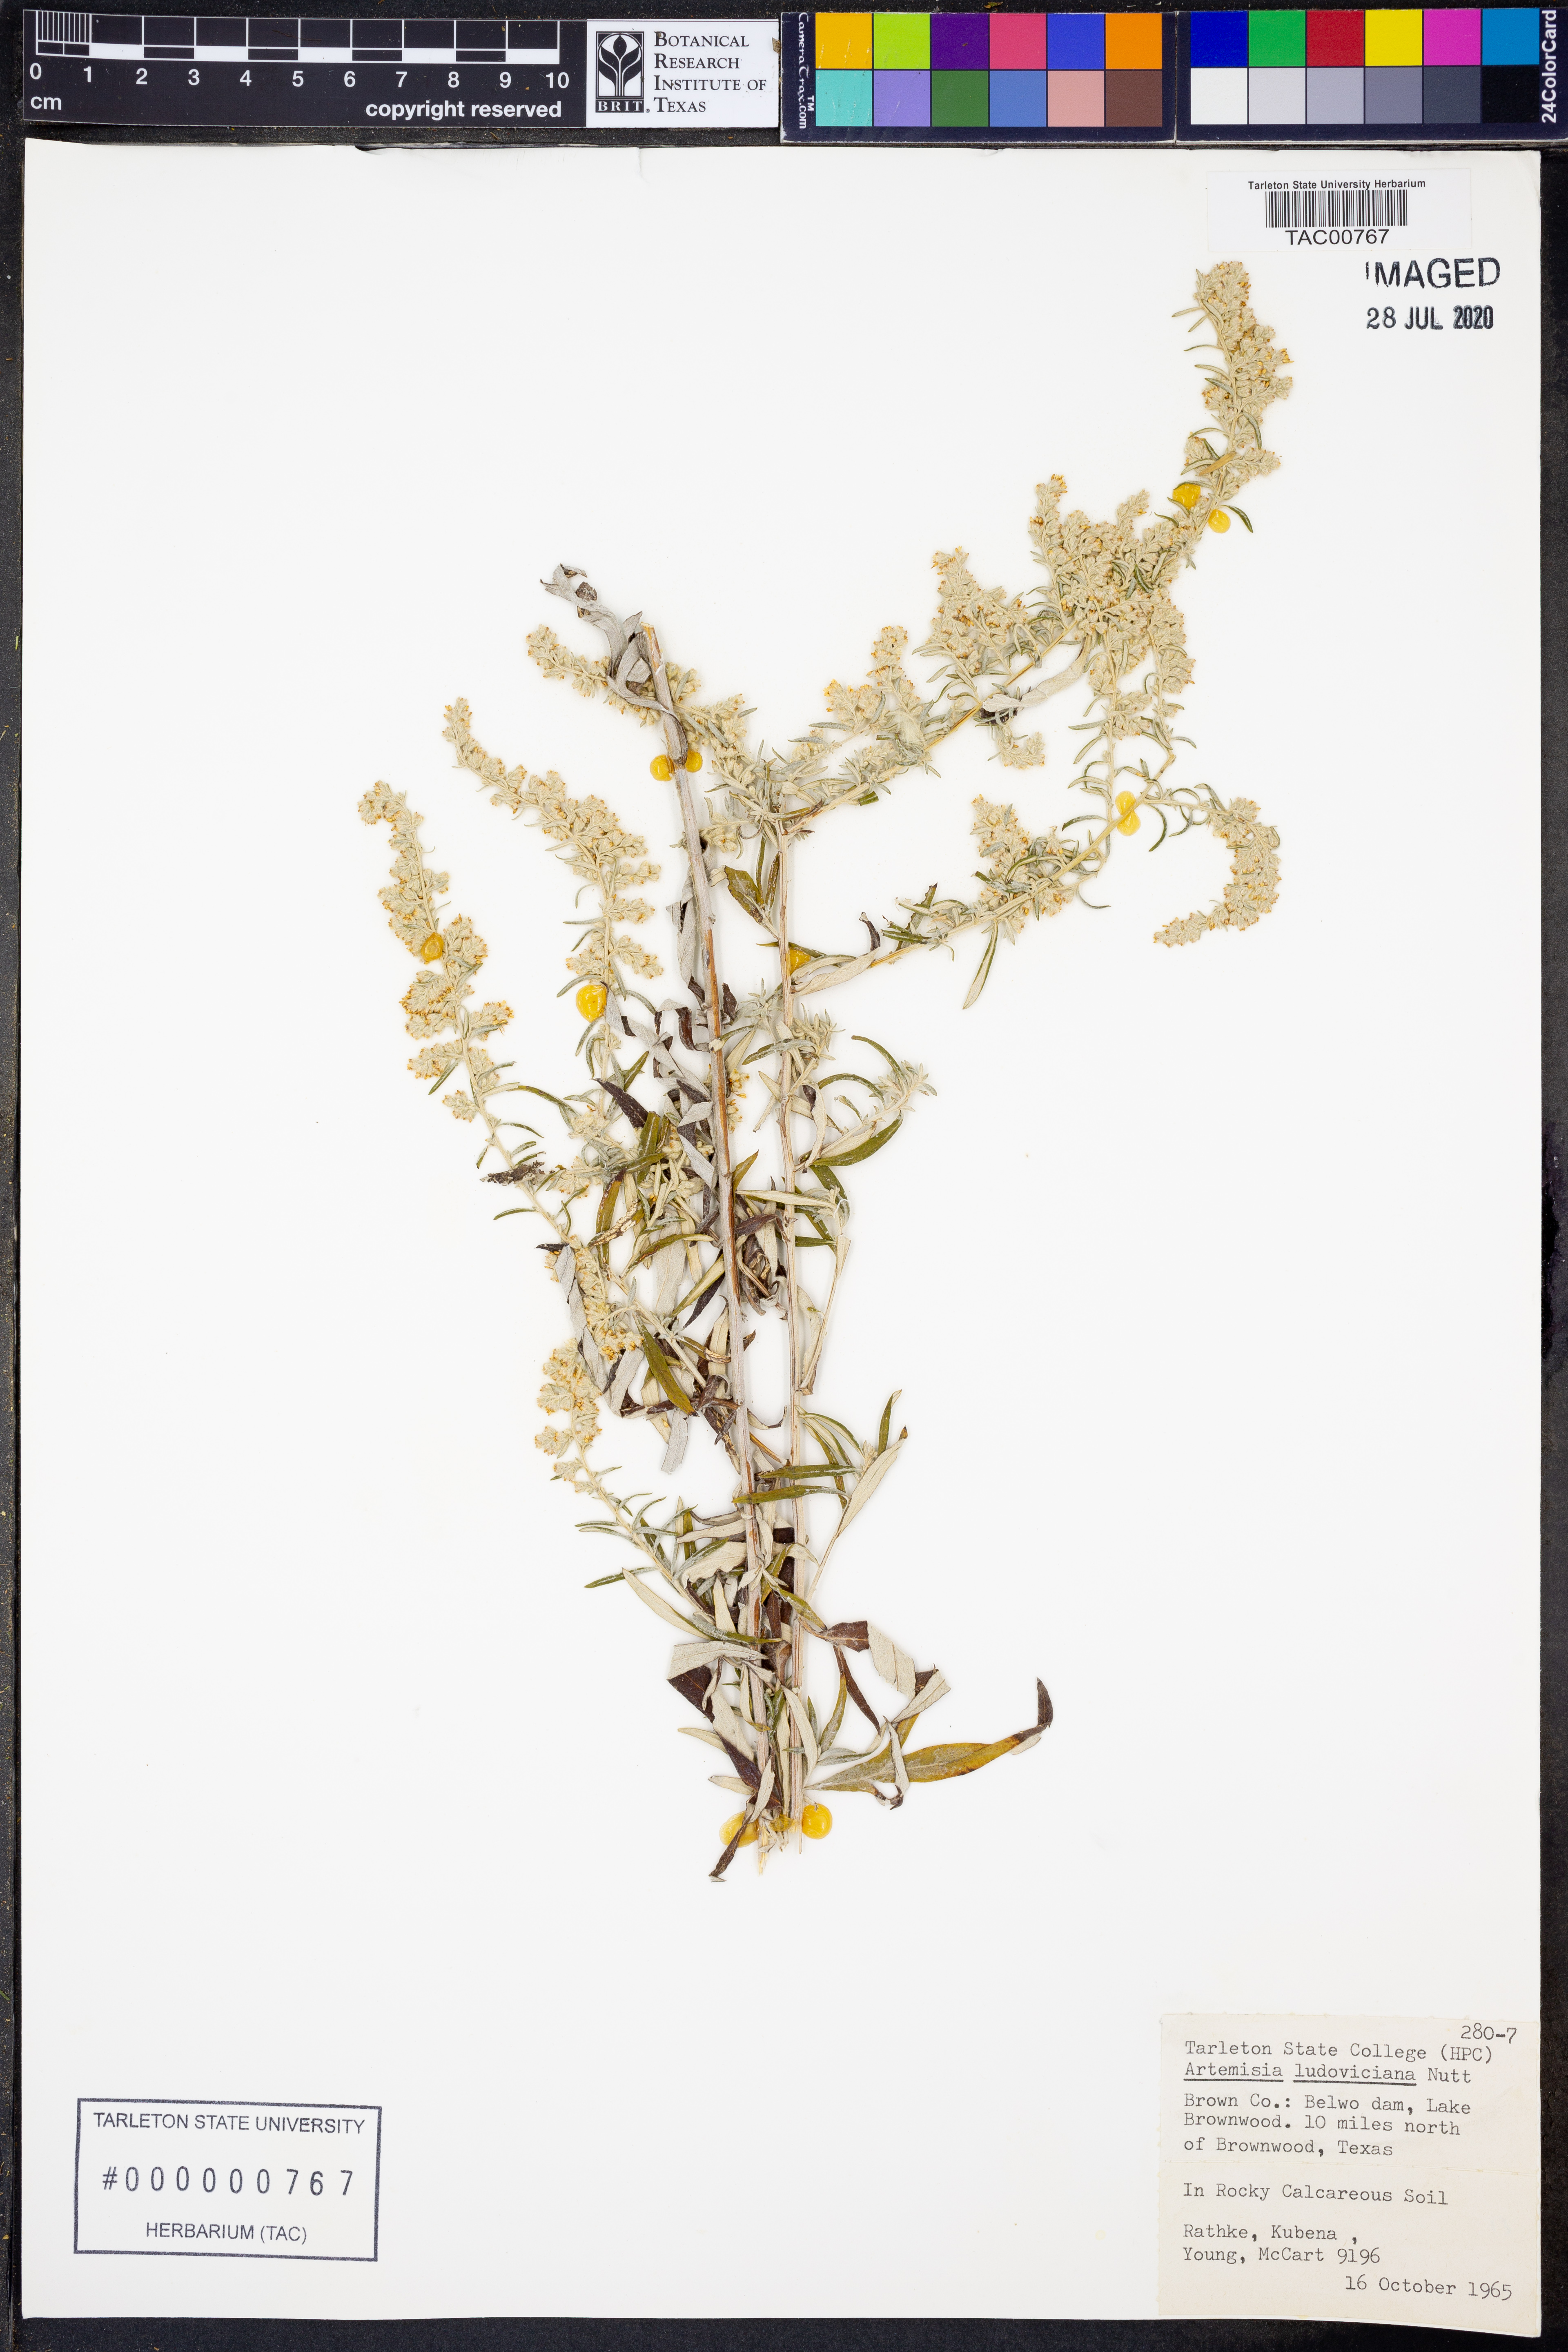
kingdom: Plantae
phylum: Tracheophyta
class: Magnoliopsida
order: Asterales
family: Asteraceae
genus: Artemisia
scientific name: Artemisia ludoviciana
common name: Western mugwort
